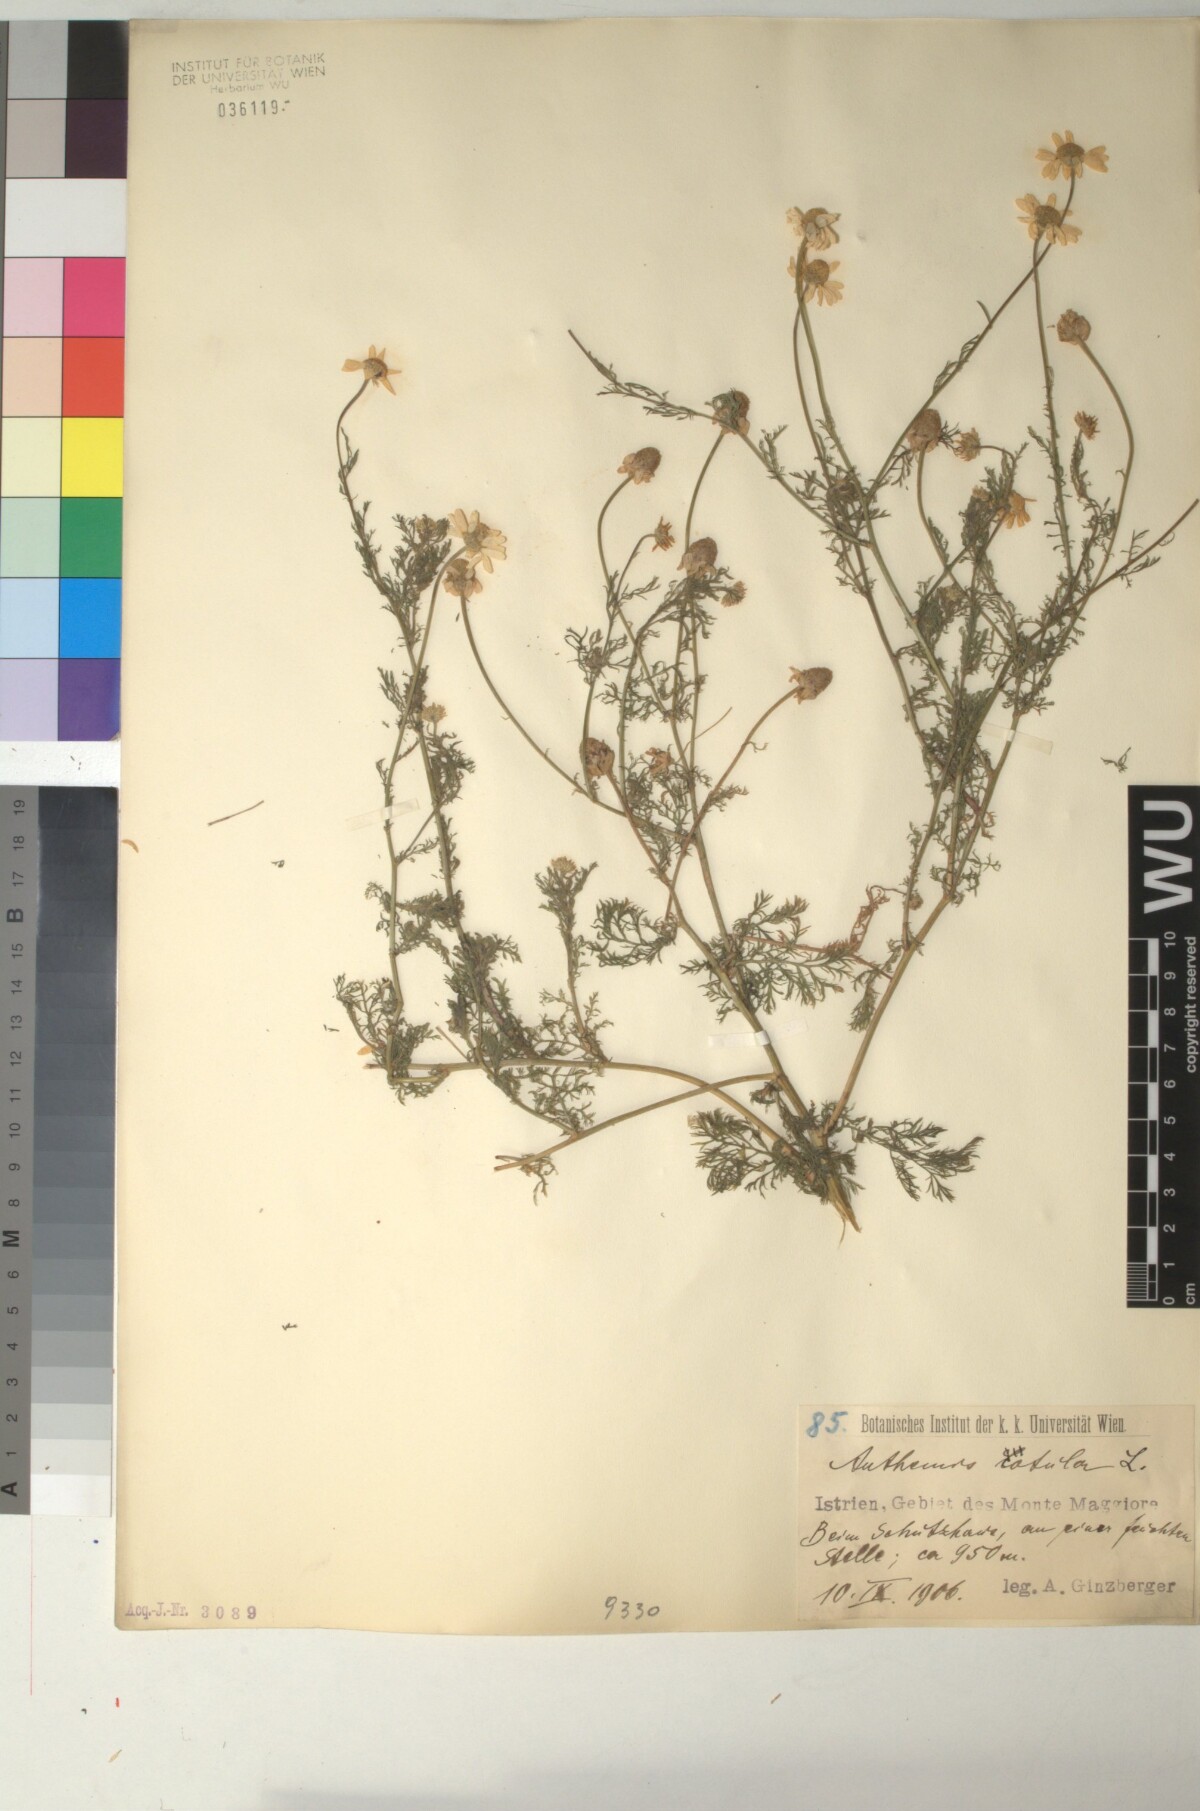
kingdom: Plantae
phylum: Tracheophyta
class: Magnoliopsida
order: Asterales
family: Asteraceae
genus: Anthemis
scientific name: Anthemis cotula
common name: Stinking chamomile
